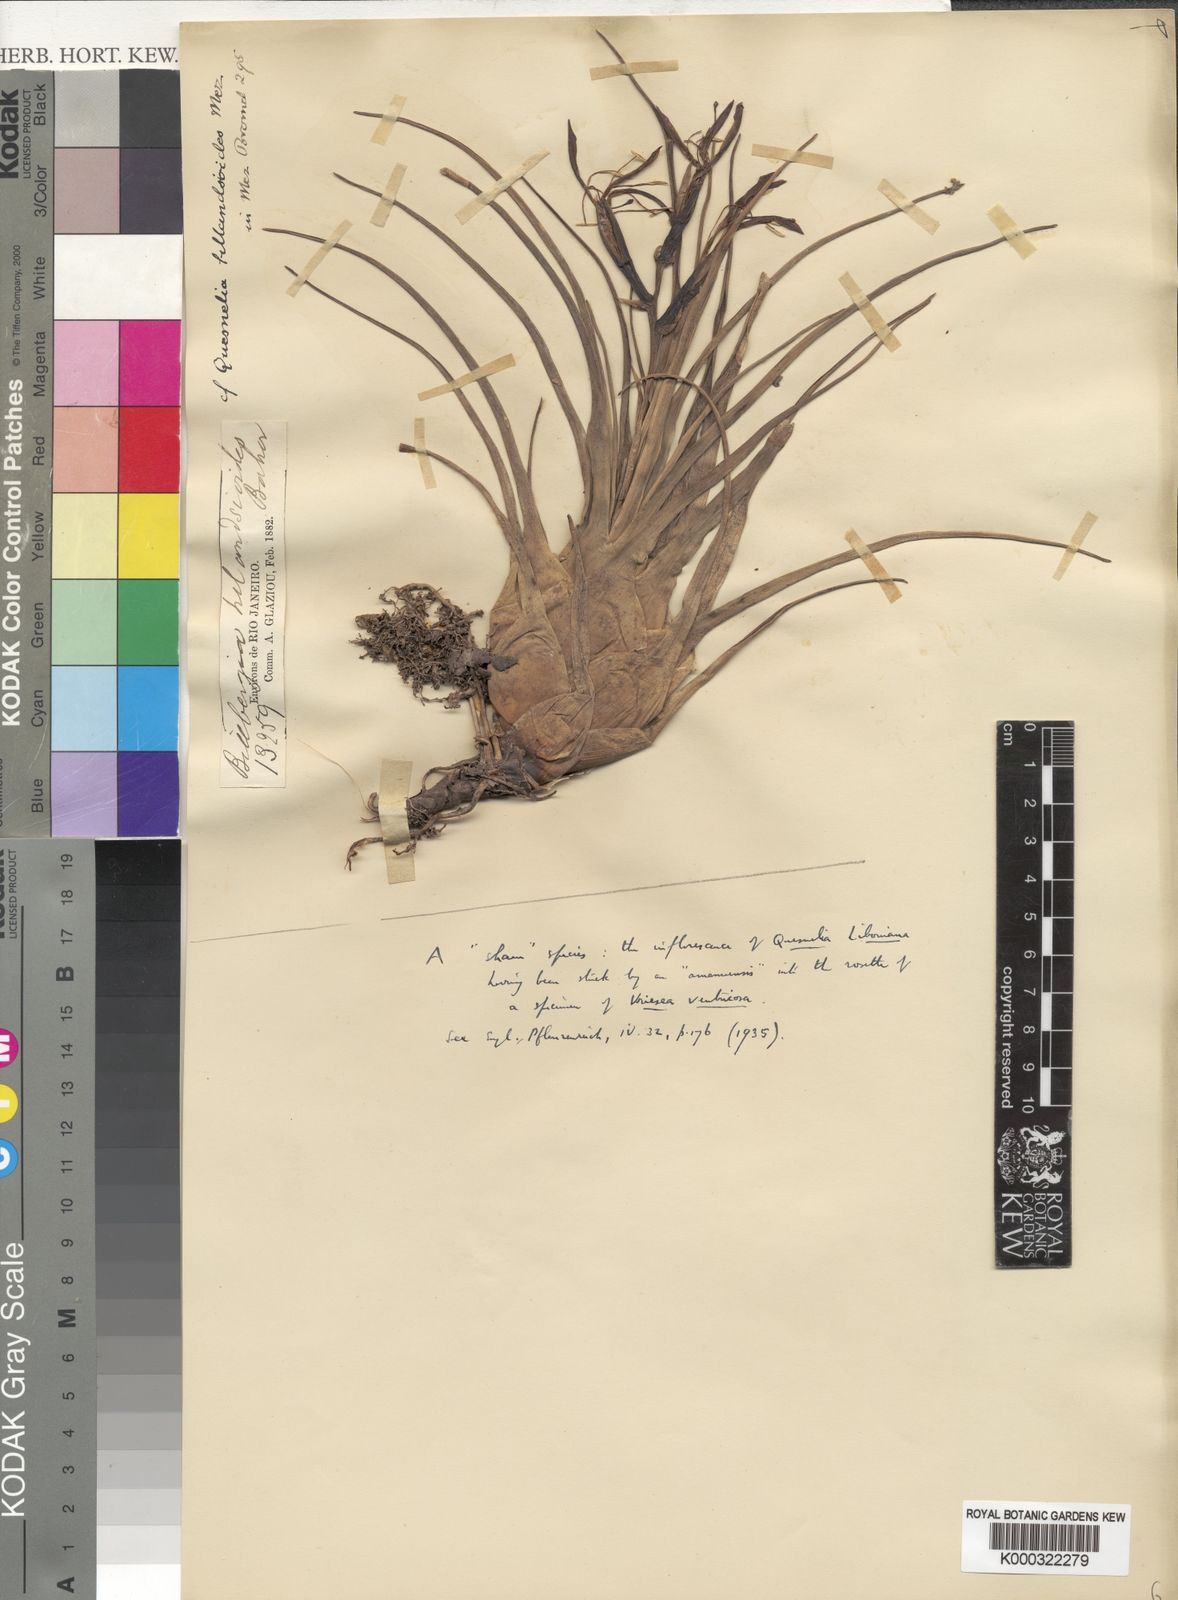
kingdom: Plantae
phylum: Tracheophyta
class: Liliopsida
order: Poales
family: Bromeliaceae
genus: Quesnelia
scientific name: Quesnelia liboniana
